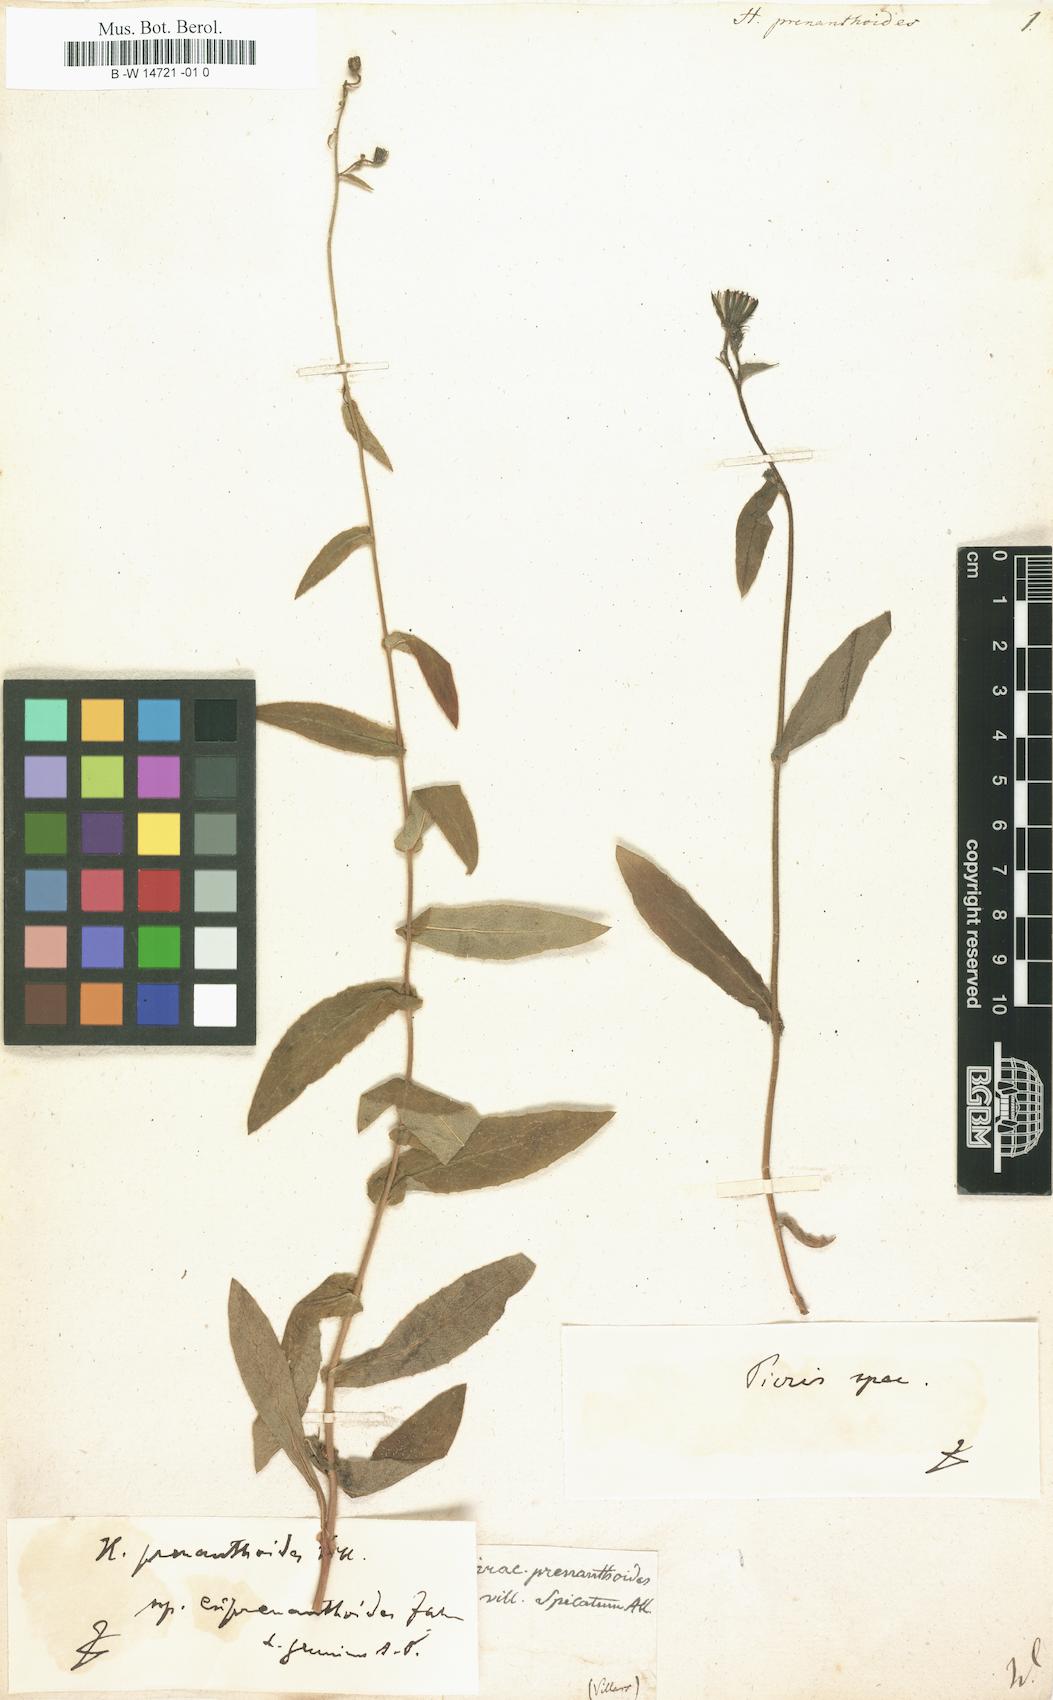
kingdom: Plantae
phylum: Tracheophyta
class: Magnoliopsida
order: Asterales
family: Asteraceae
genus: Hieracium
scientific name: Hieracium prenanthoides
